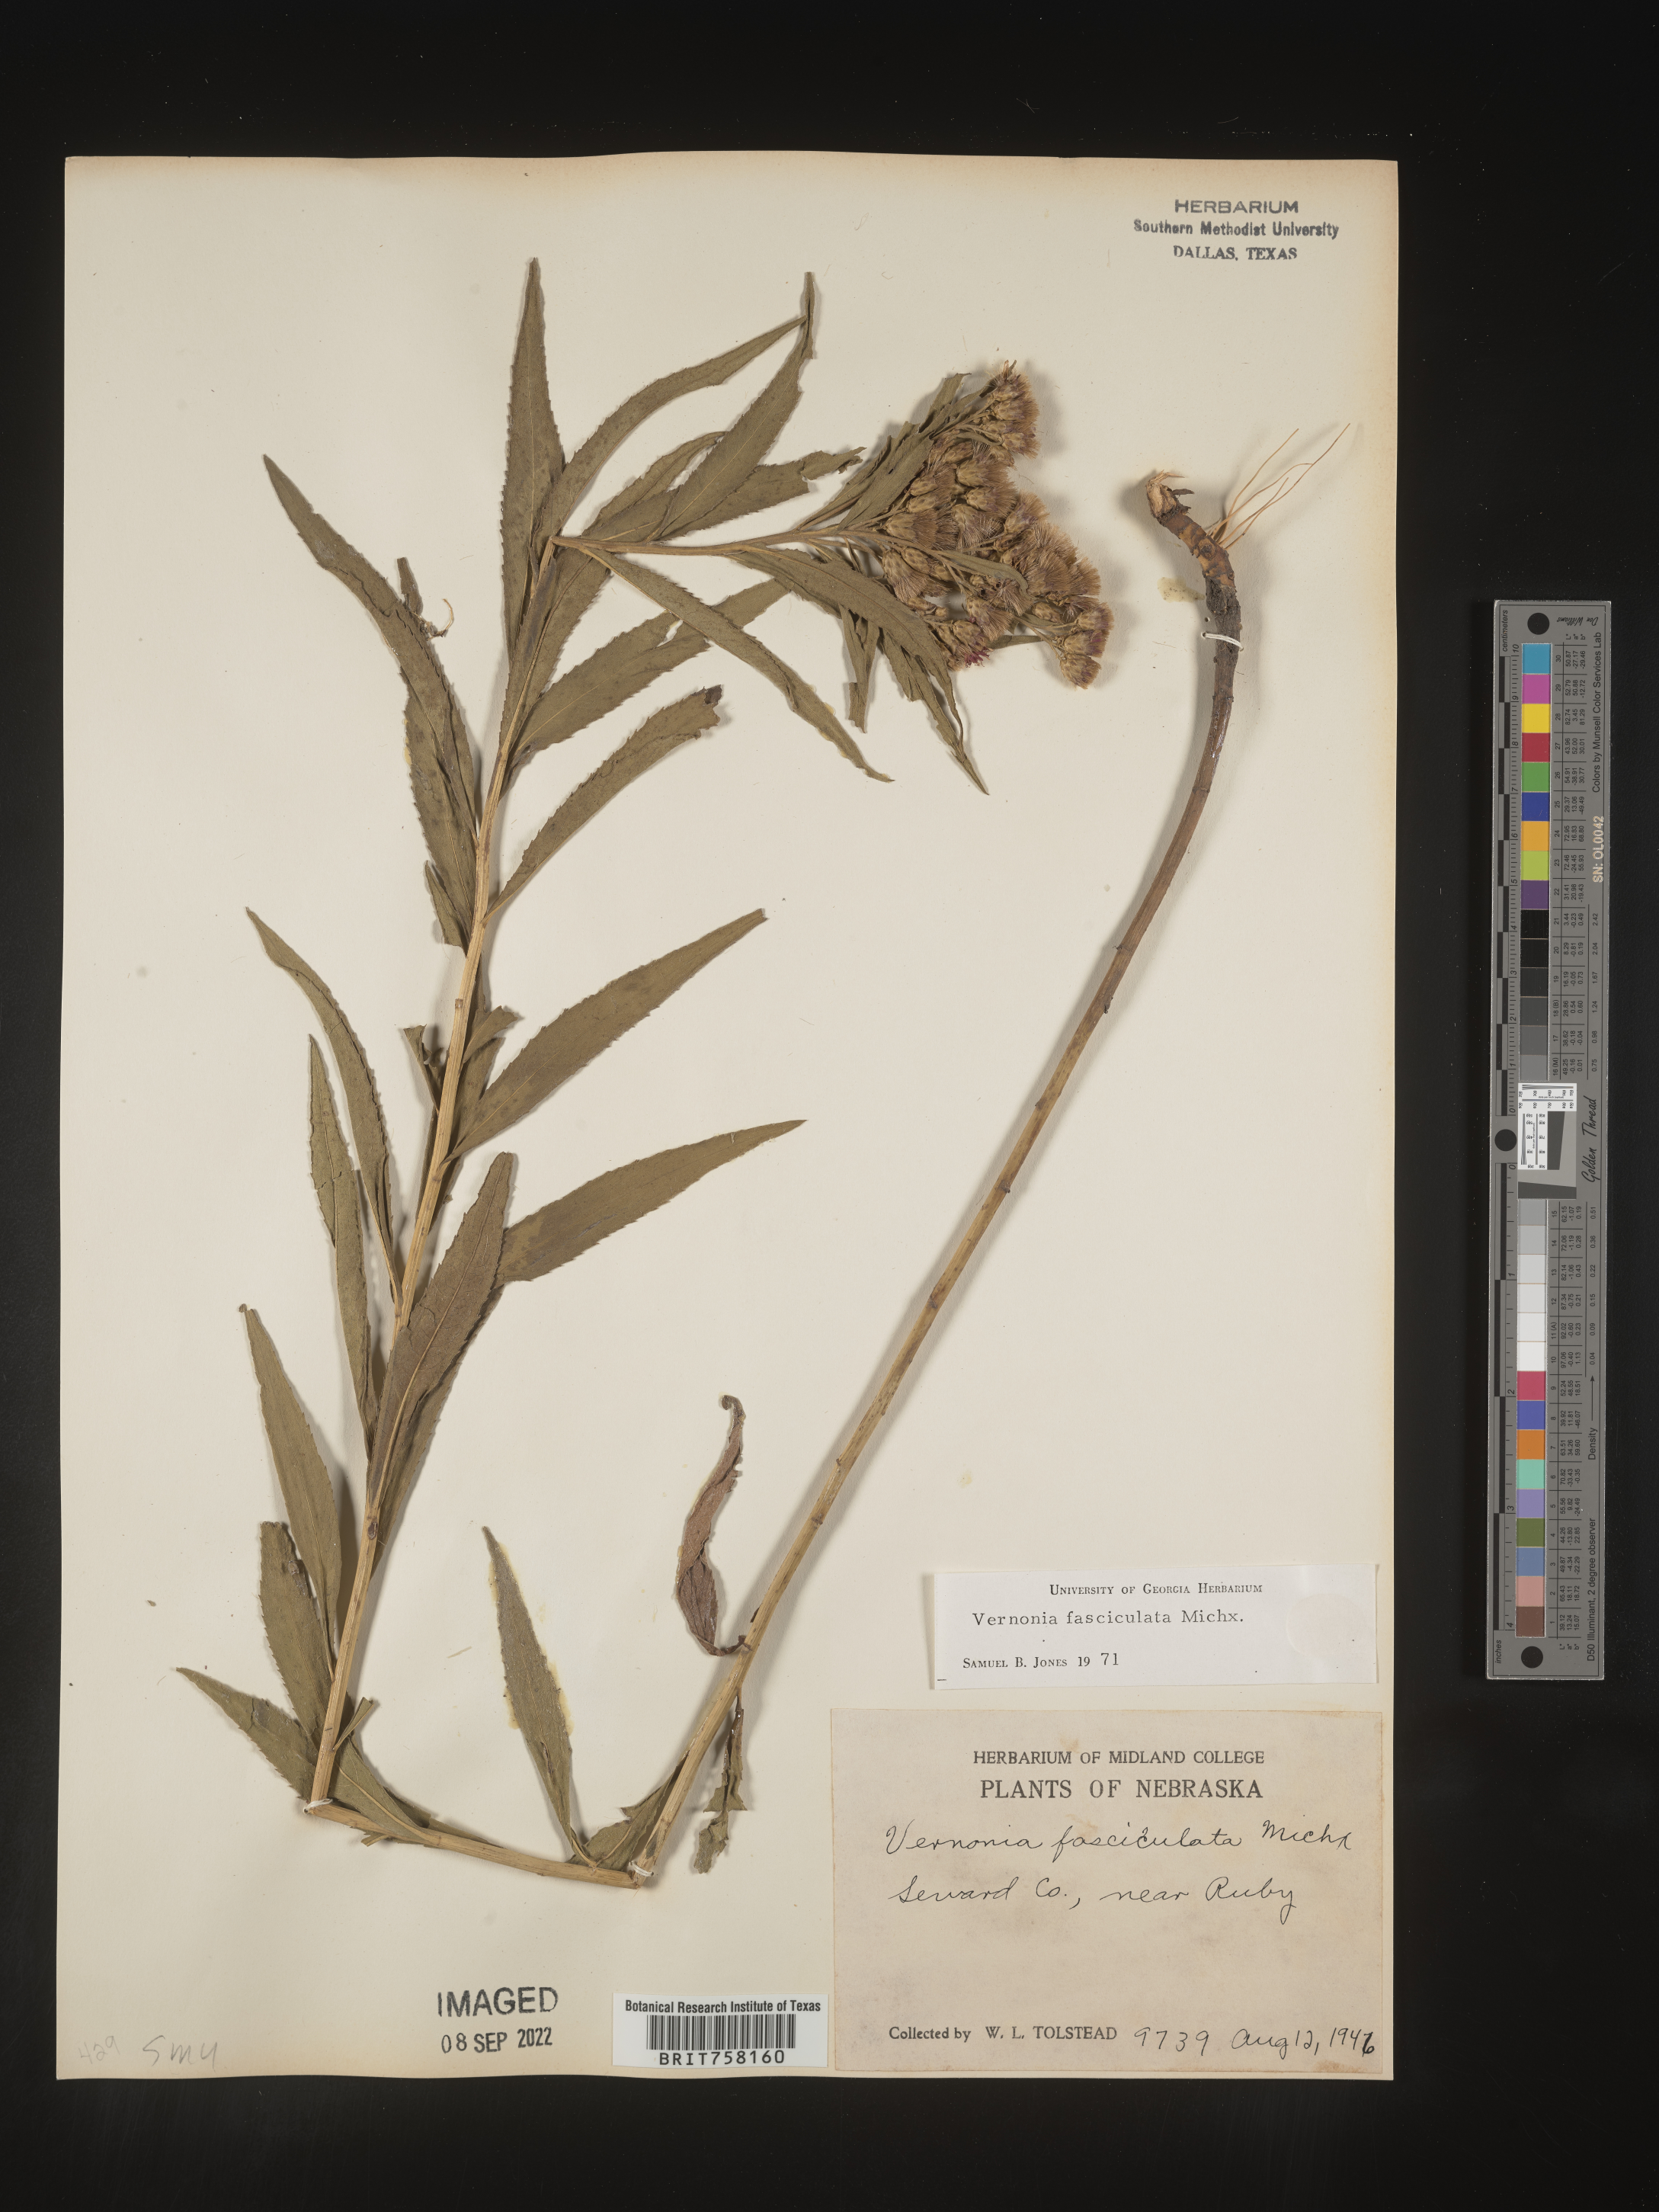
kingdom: Plantae
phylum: Tracheophyta
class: Magnoliopsida
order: Asterales
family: Asteraceae
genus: Vernonia
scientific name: Vernonia fasciculata
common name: Fascicled ironweed
